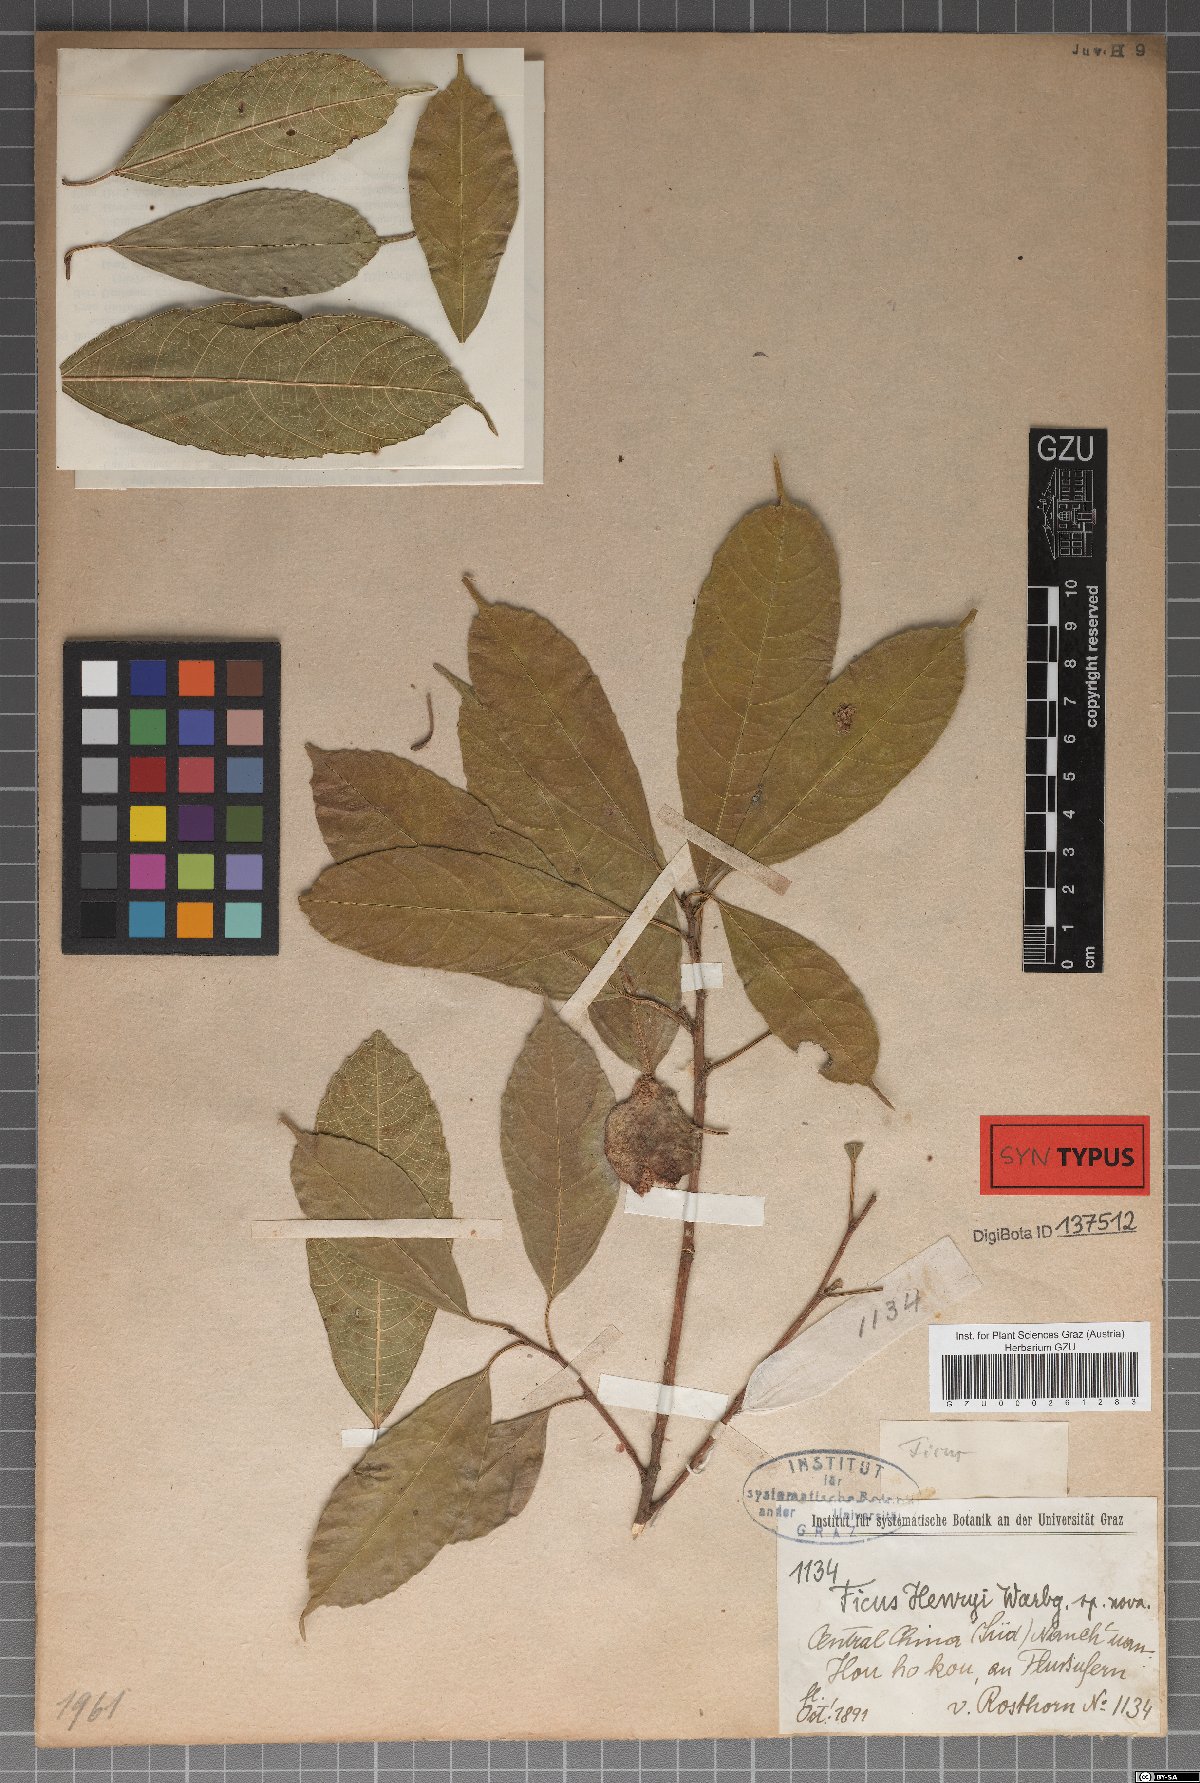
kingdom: Plantae
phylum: Tracheophyta
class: Magnoliopsida
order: Rosales
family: Moraceae
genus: Ficus
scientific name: Ficus henryi
